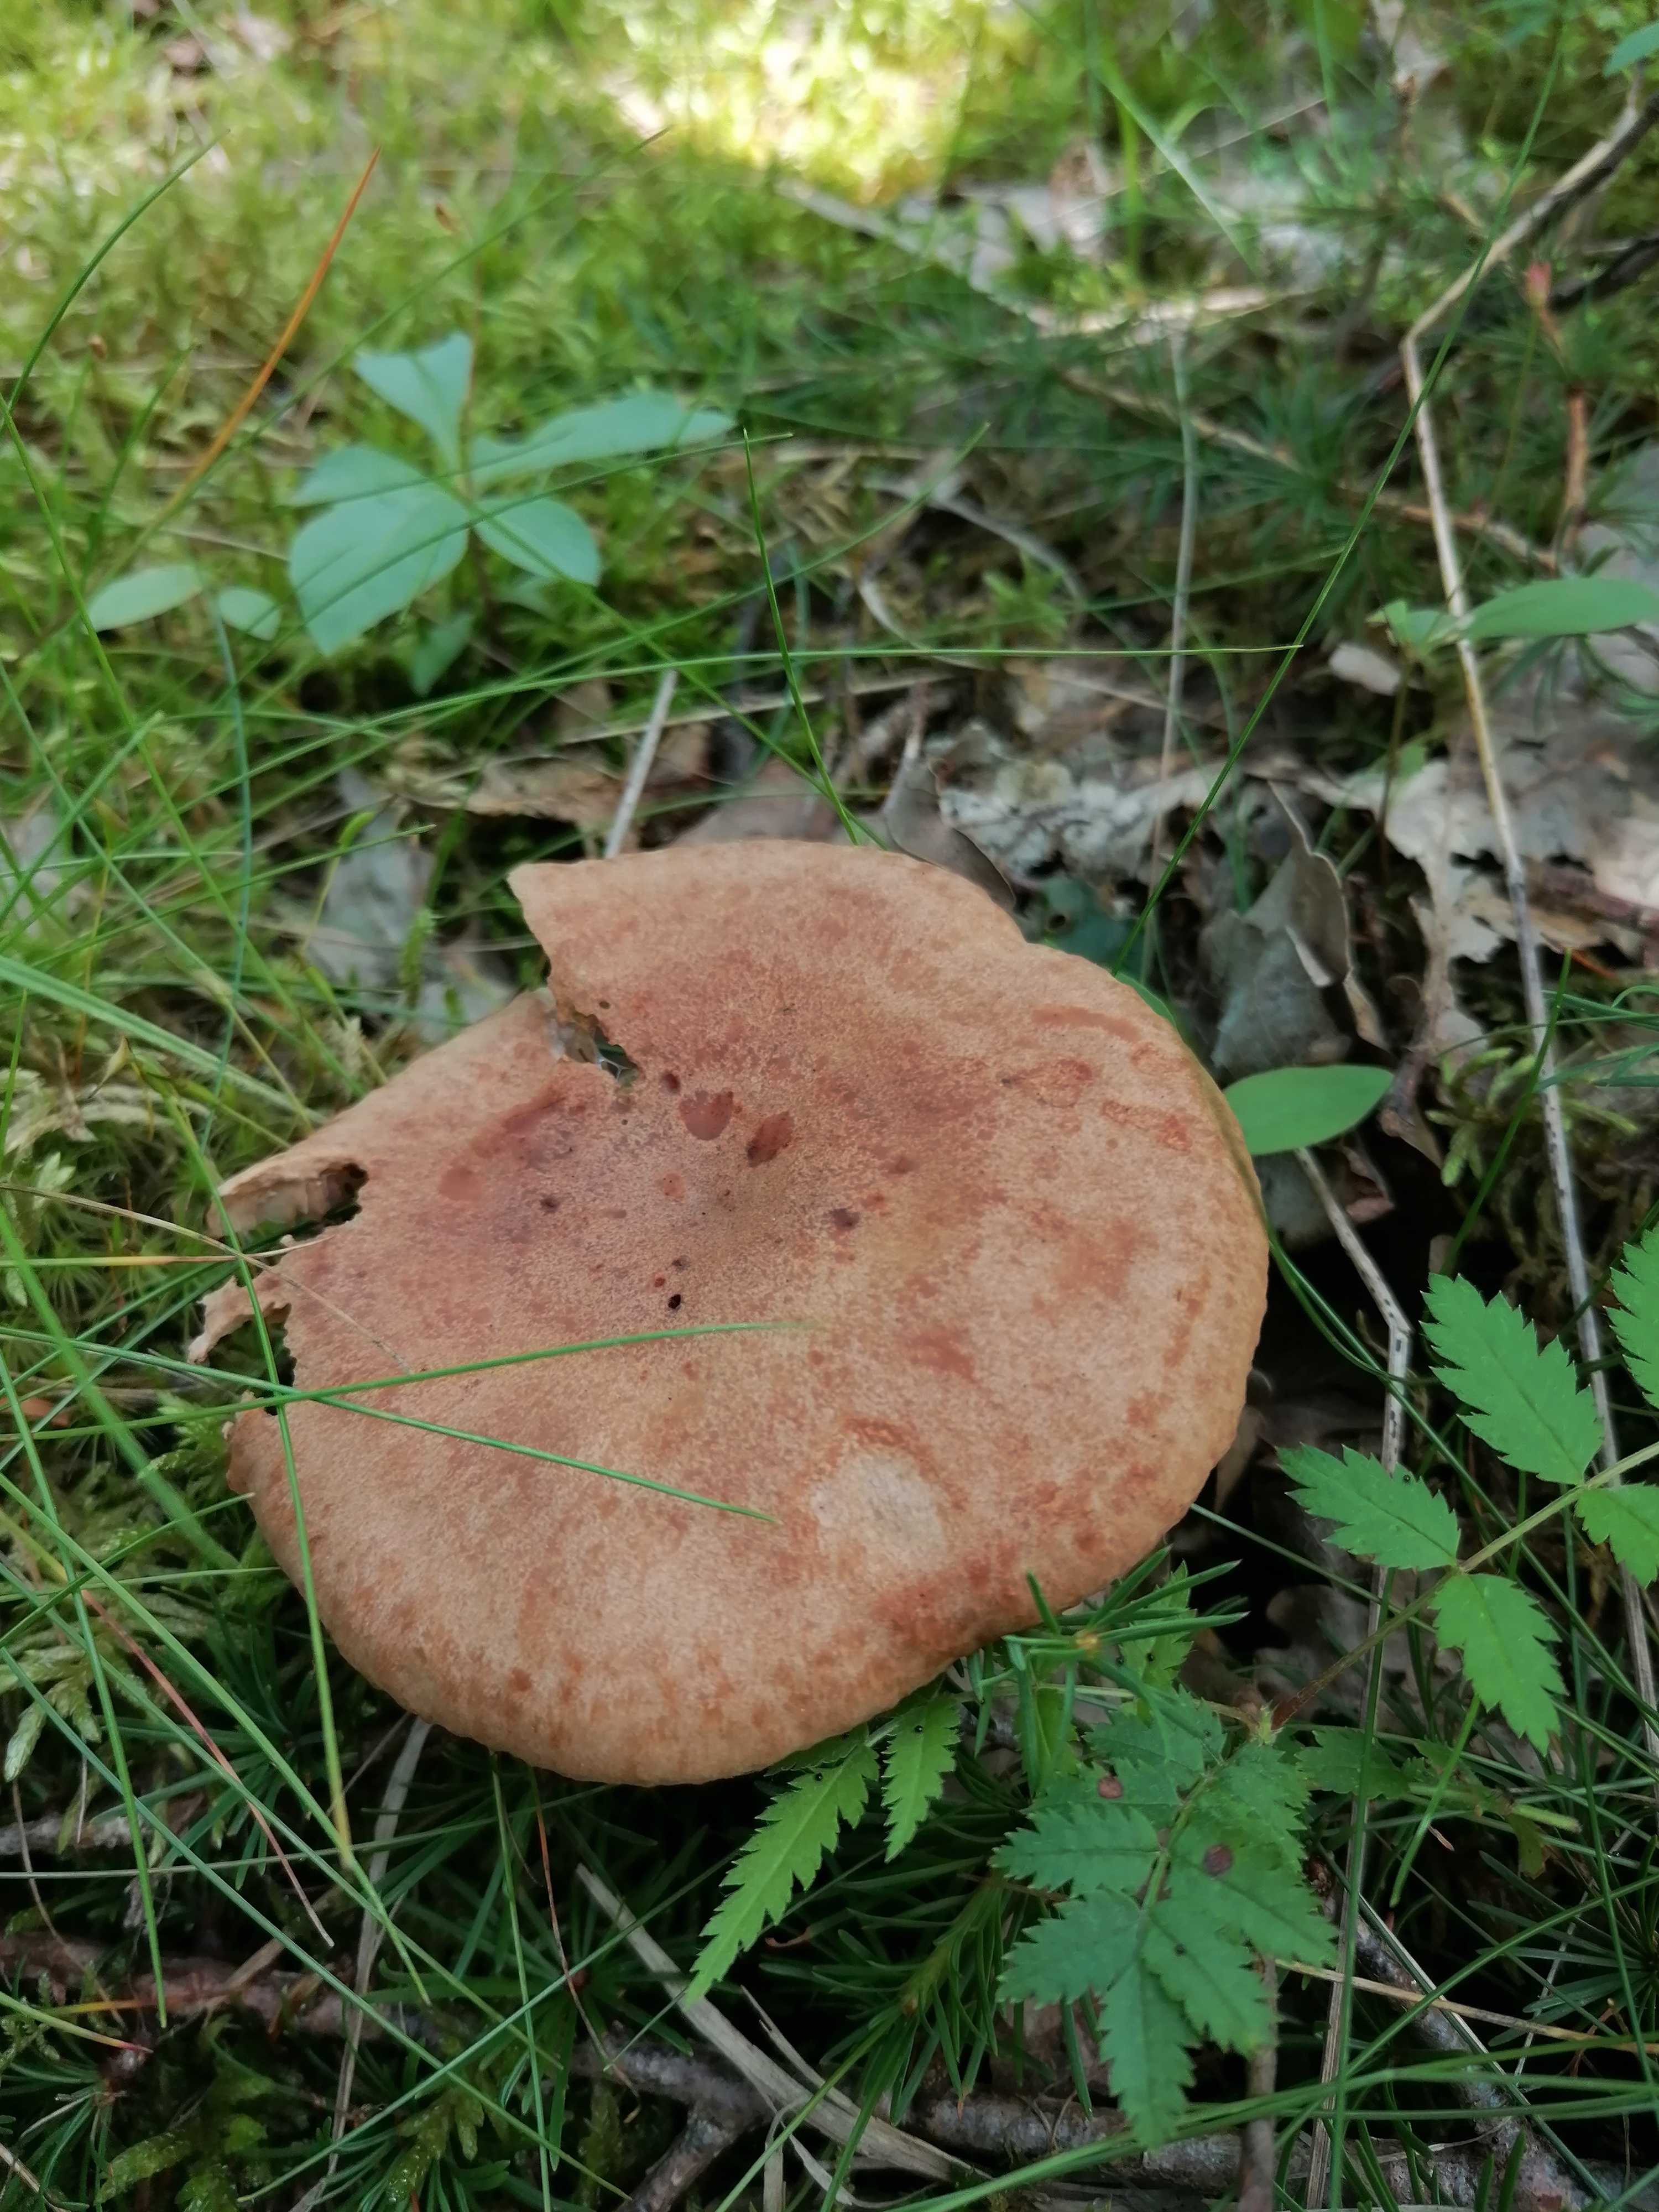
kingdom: Fungi
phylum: Basidiomycota
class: Agaricomycetes
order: Russulales
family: Russulaceae
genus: Lactarius
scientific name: Lactarius quietus
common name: ege-mælkehat
